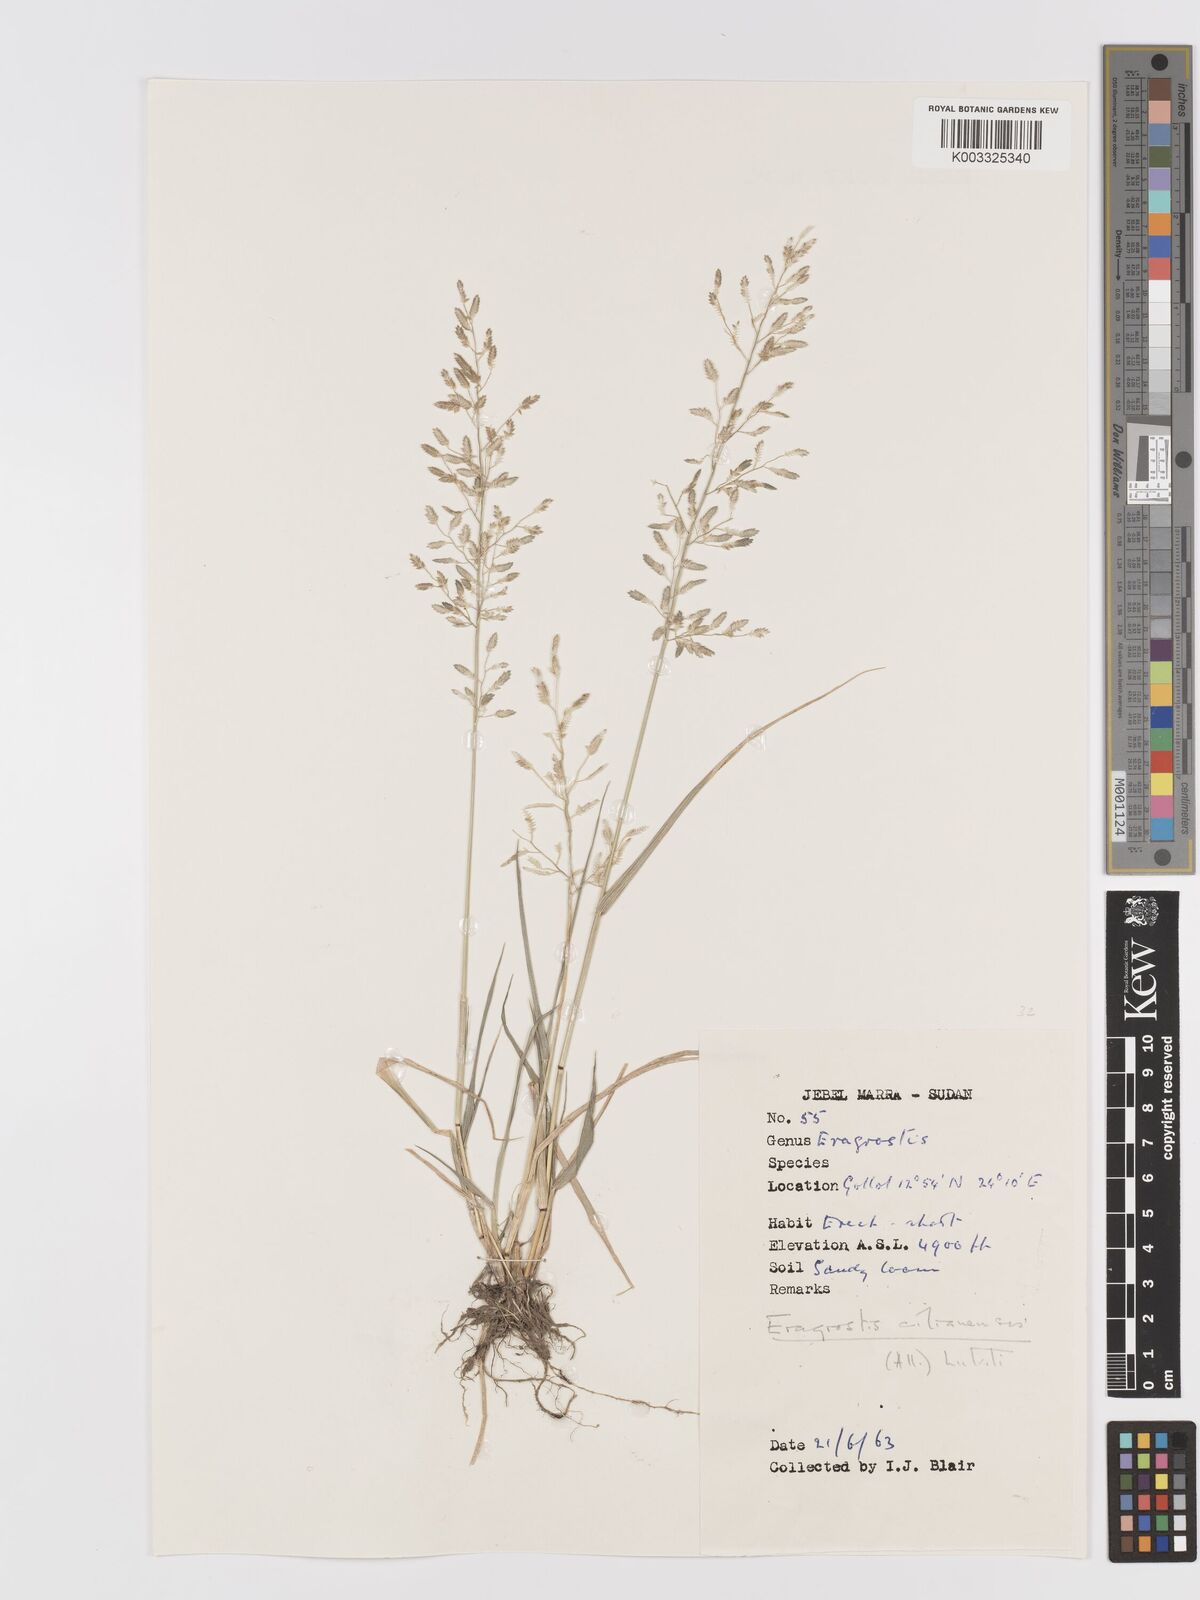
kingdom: Plantae
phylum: Tracheophyta
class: Liliopsida
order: Poales
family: Poaceae
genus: Eragrostis
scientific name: Eragrostis cilianensis
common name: Stinkgrass
